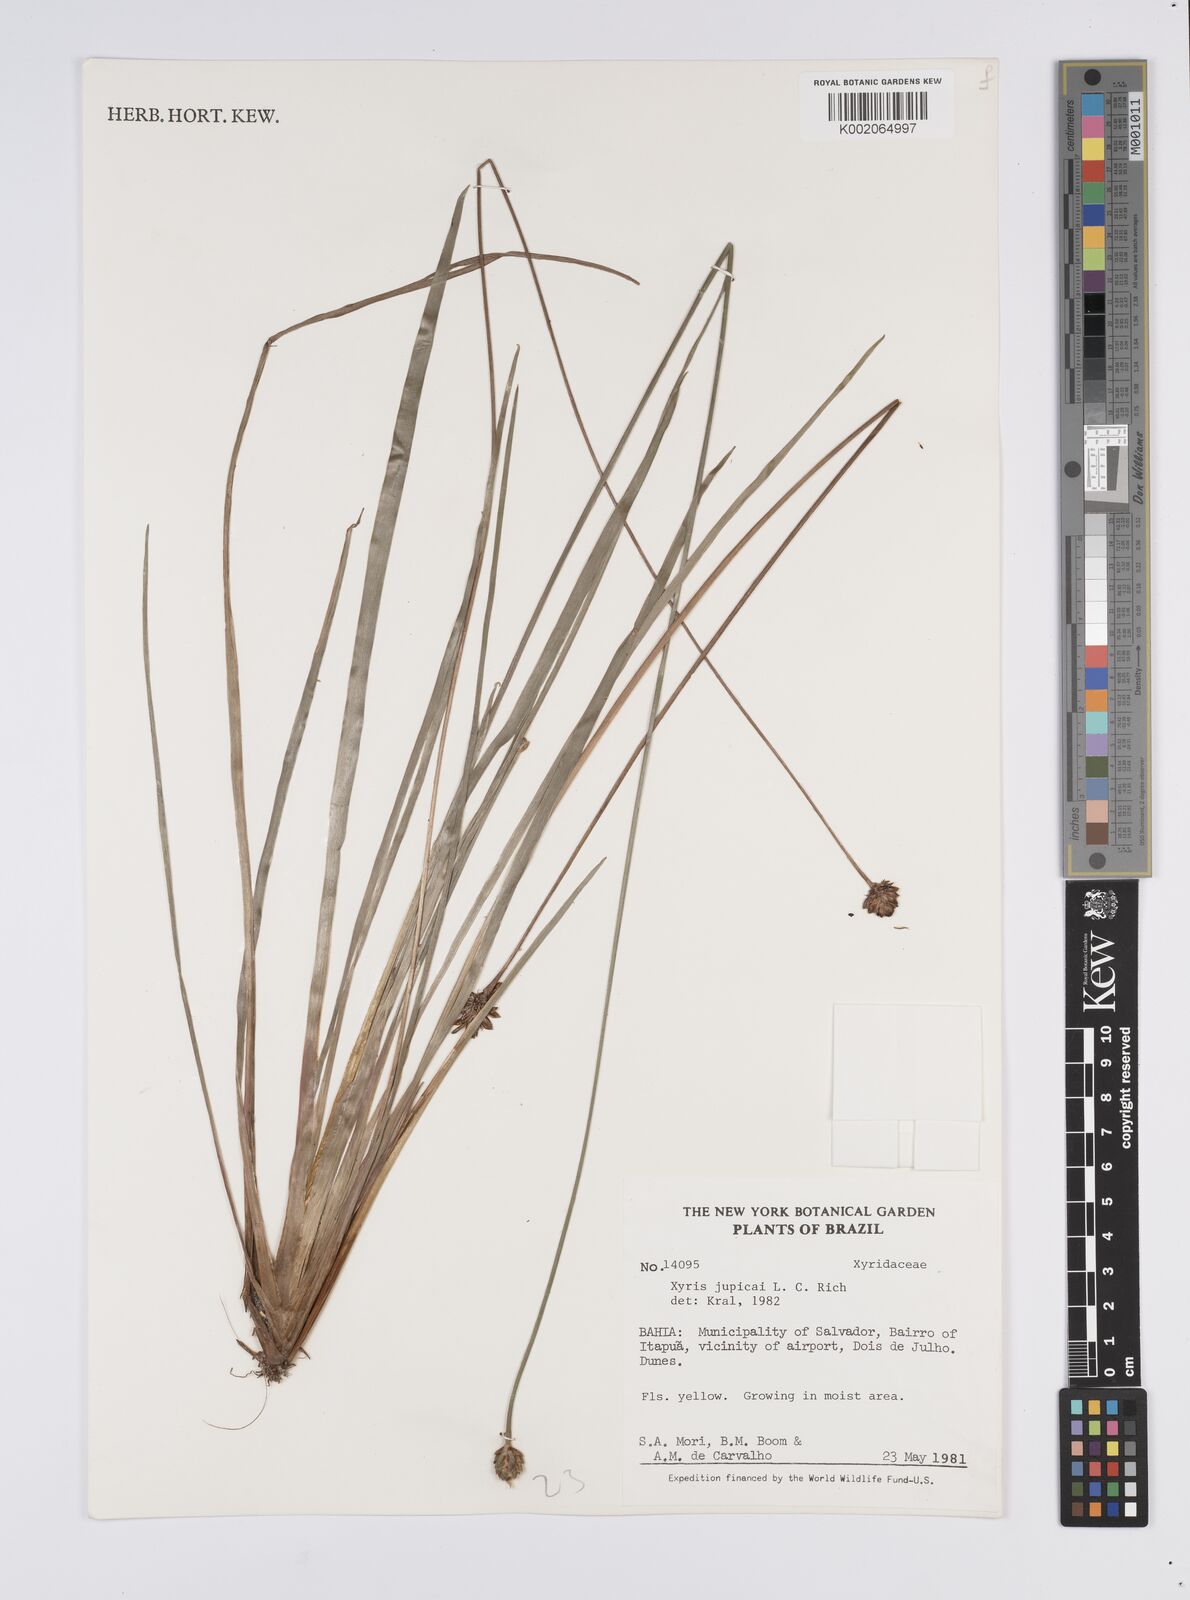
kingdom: Plantae
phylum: Tracheophyta
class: Liliopsida
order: Poales
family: Xyridaceae
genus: Xyris
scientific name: Xyris jupicai
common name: Richard's yelloweyed grass
